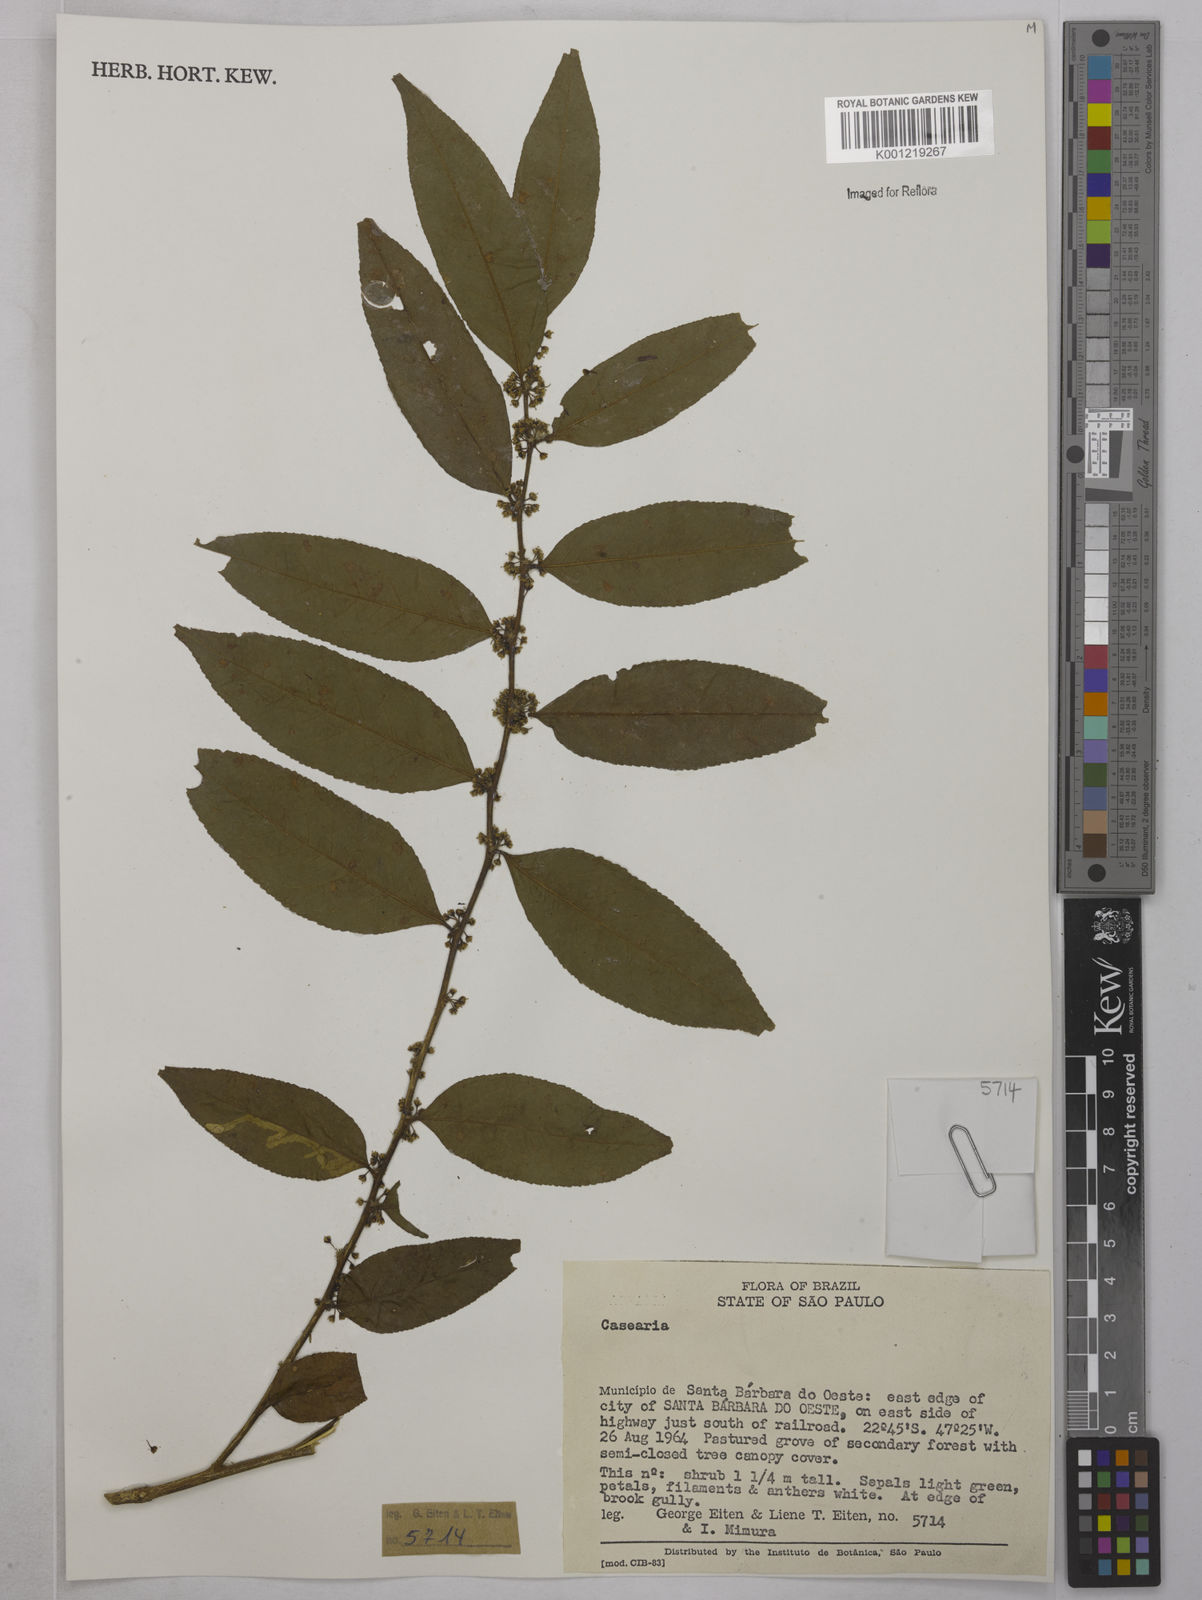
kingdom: Plantae
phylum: Tracheophyta
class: Magnoliopsida
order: Malpighiales
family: Salicaceae
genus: Casearia
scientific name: Casearia
